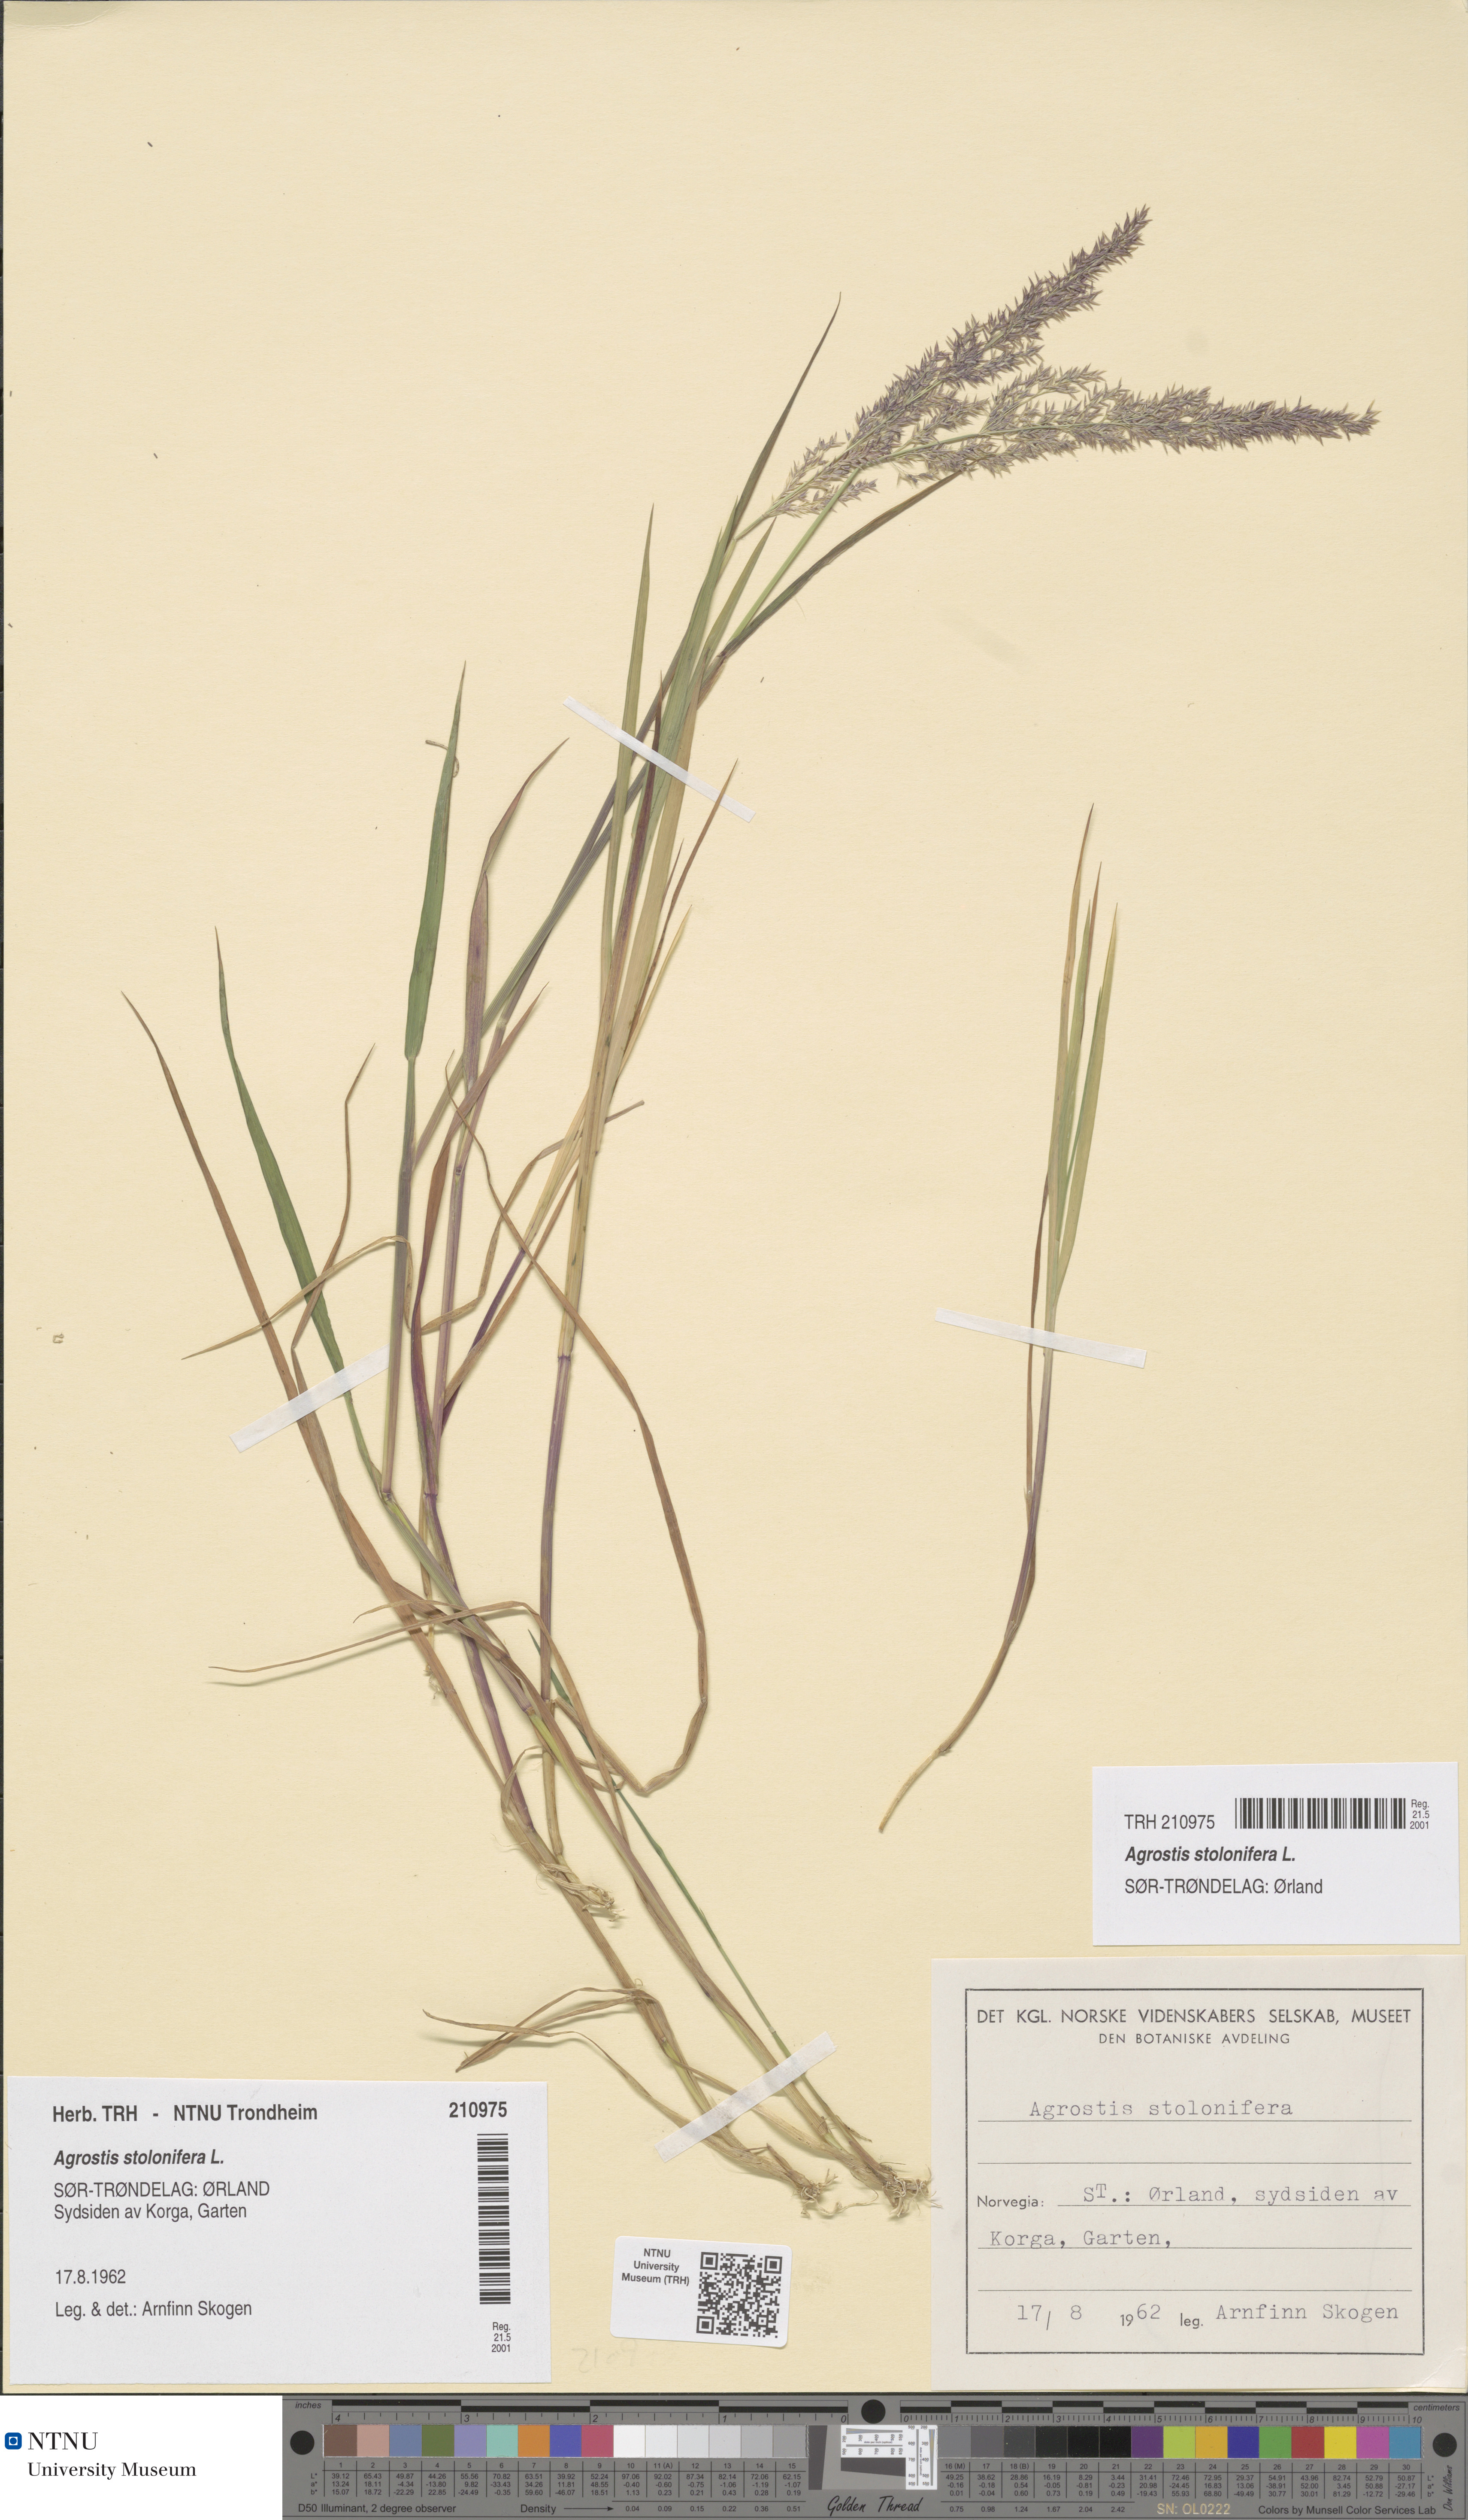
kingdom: Plantae
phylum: Tracheophyta
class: Liliopsida
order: Poales
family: Poaceae
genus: Agrostis
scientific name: Agrostis stolonifera
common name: Creeping bentgrass
